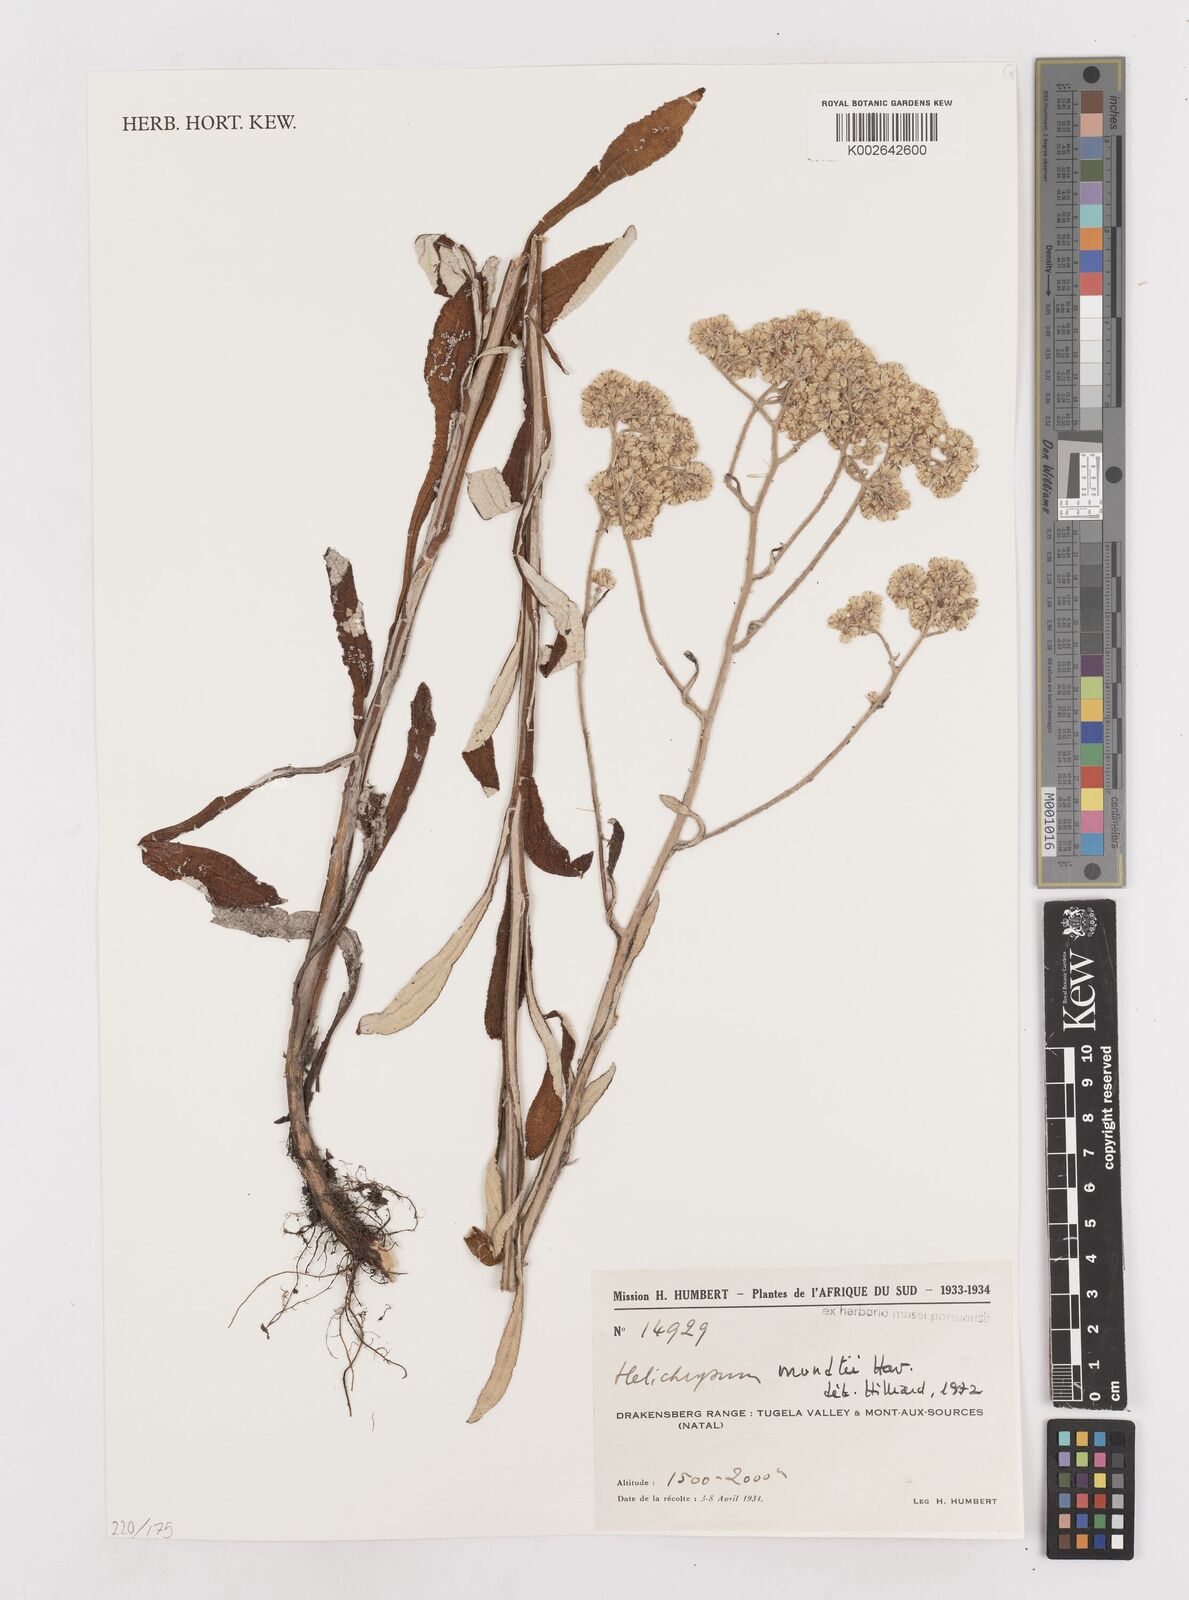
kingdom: Plantae
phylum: Tracheophyta
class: Magnoliopsida
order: Asterales
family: Asteraceae
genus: Helichrysum
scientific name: Helichrysum mundii
